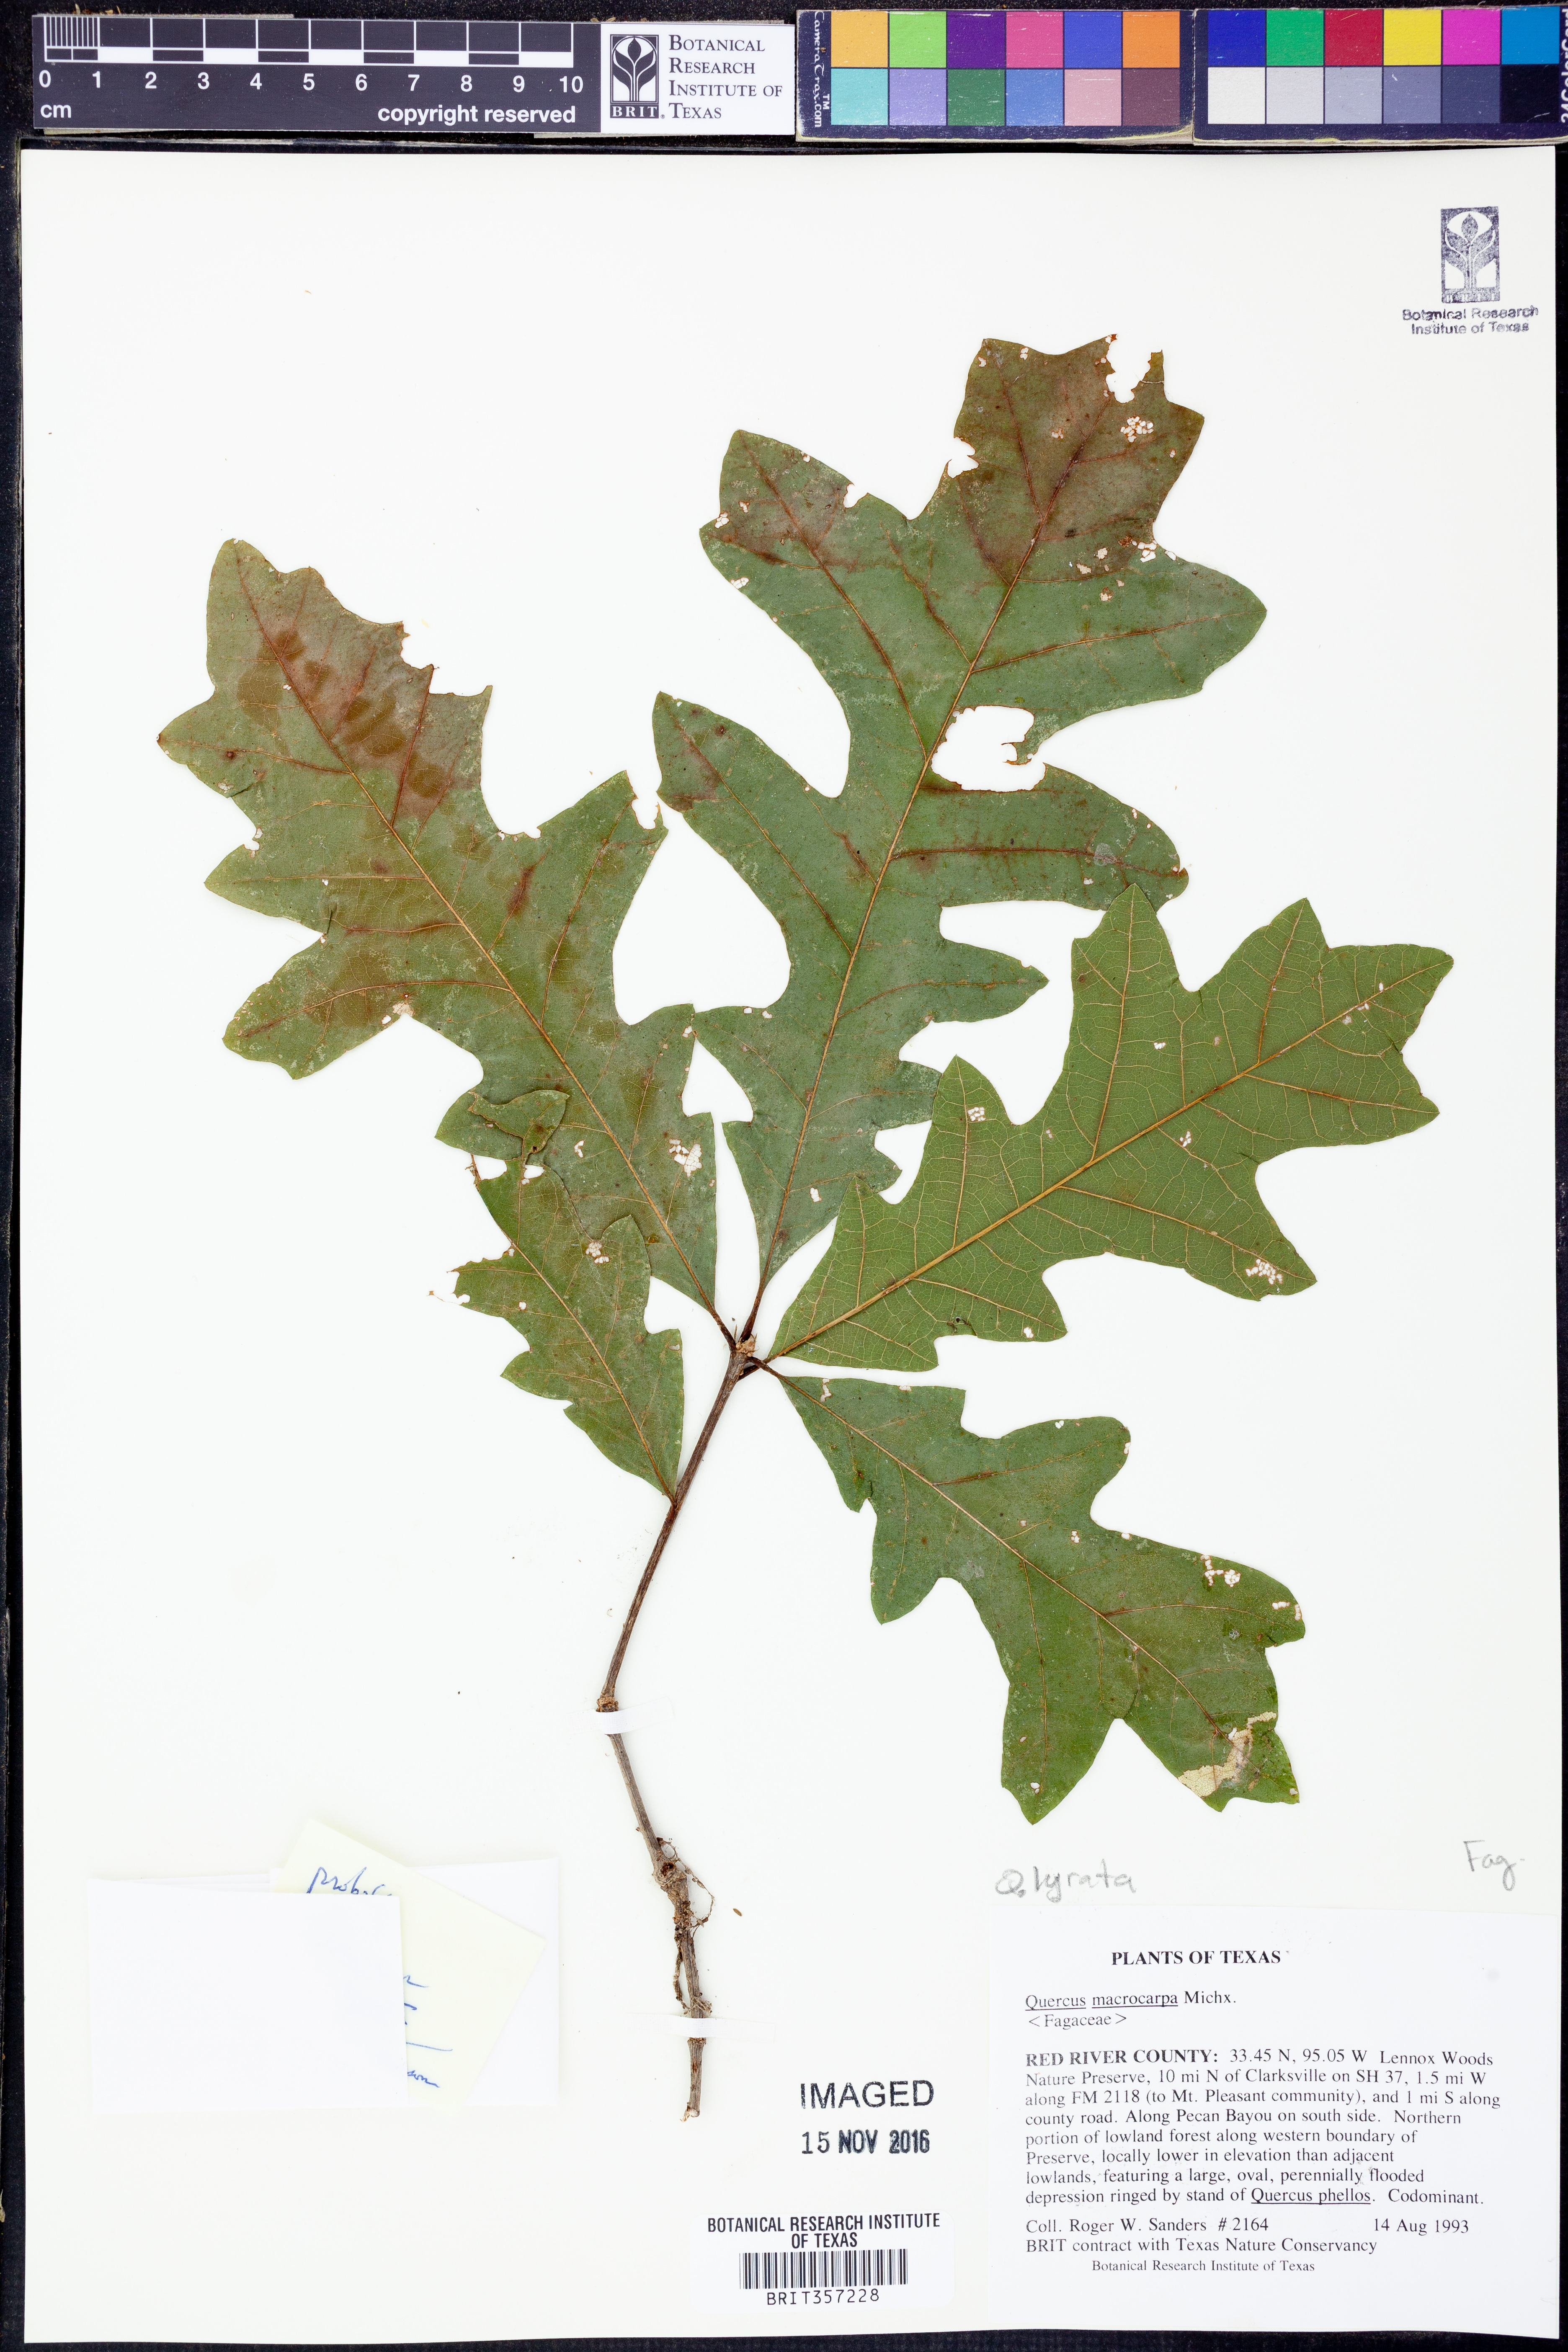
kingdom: Plantae
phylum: Tracheophyta
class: Magnoliopsida
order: Fagales
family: Fagaceae
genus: Quercus
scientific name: Quercus lyrata
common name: Overcup oak
